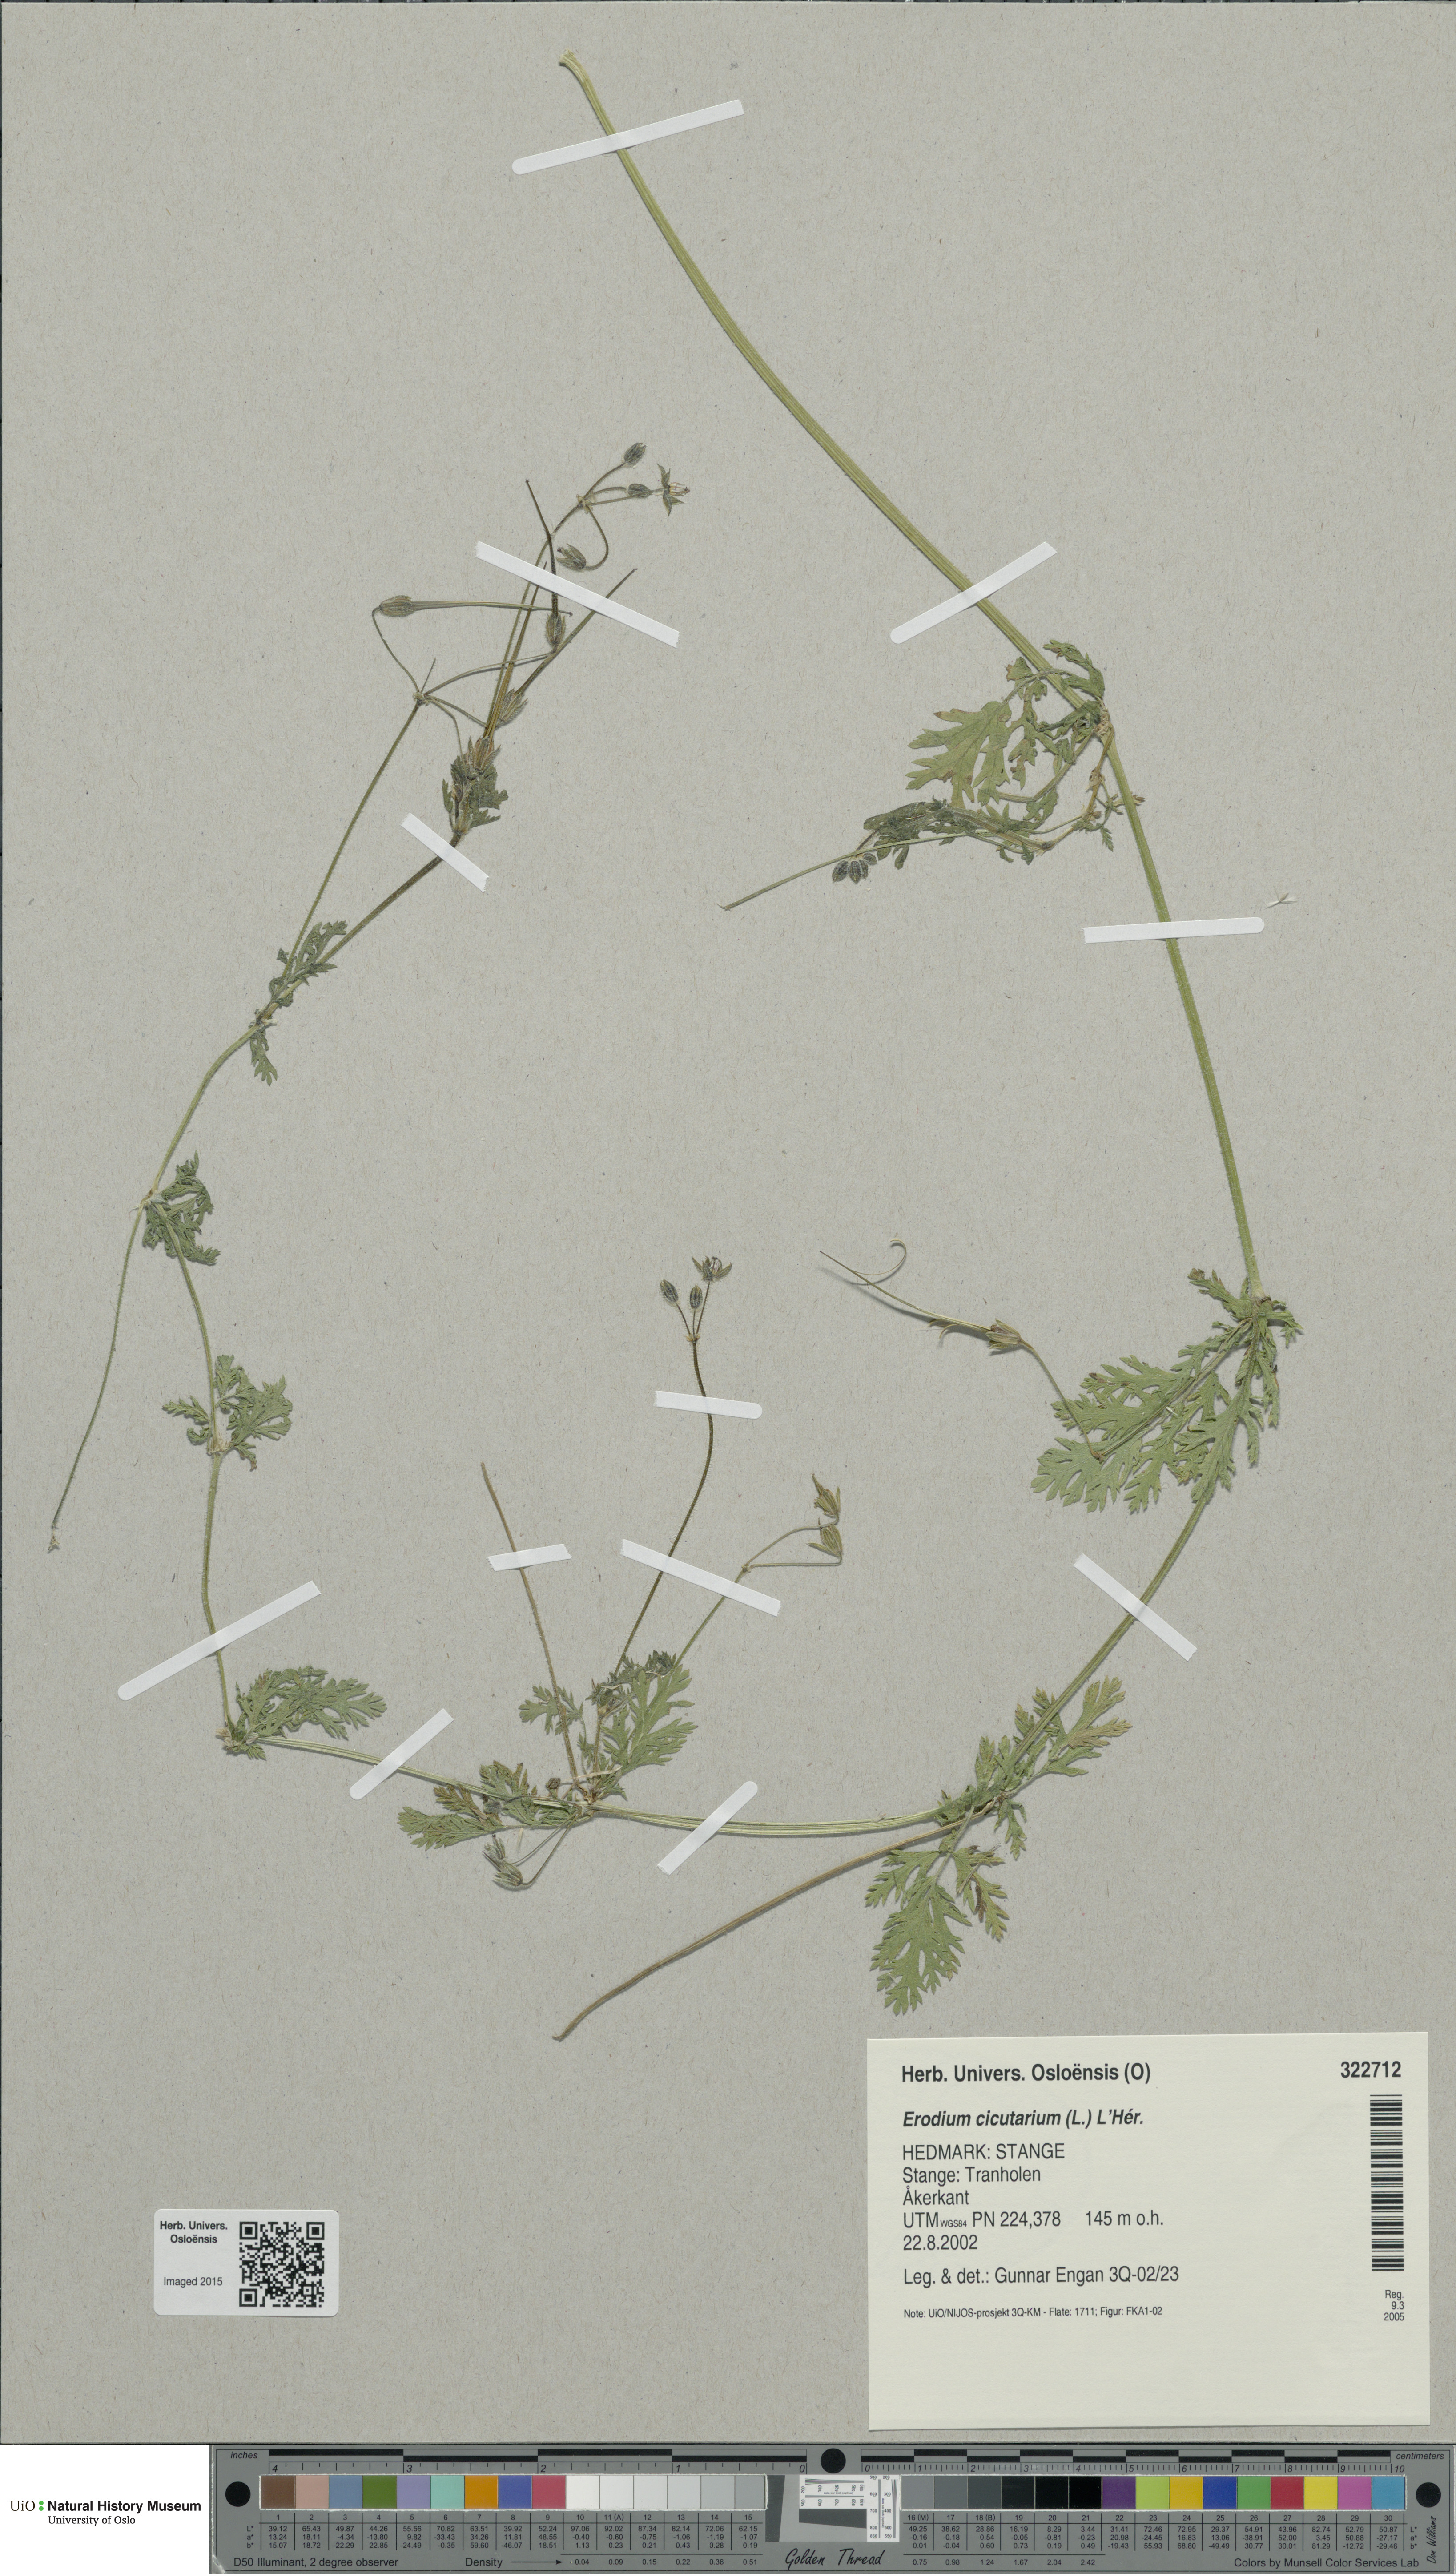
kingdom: Plantae
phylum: Tracheophyta
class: Magnoliopsida
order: Geraniales
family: Geraniaceae
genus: Erodium
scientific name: Erodium cicutarium
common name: Common stork's-bill
